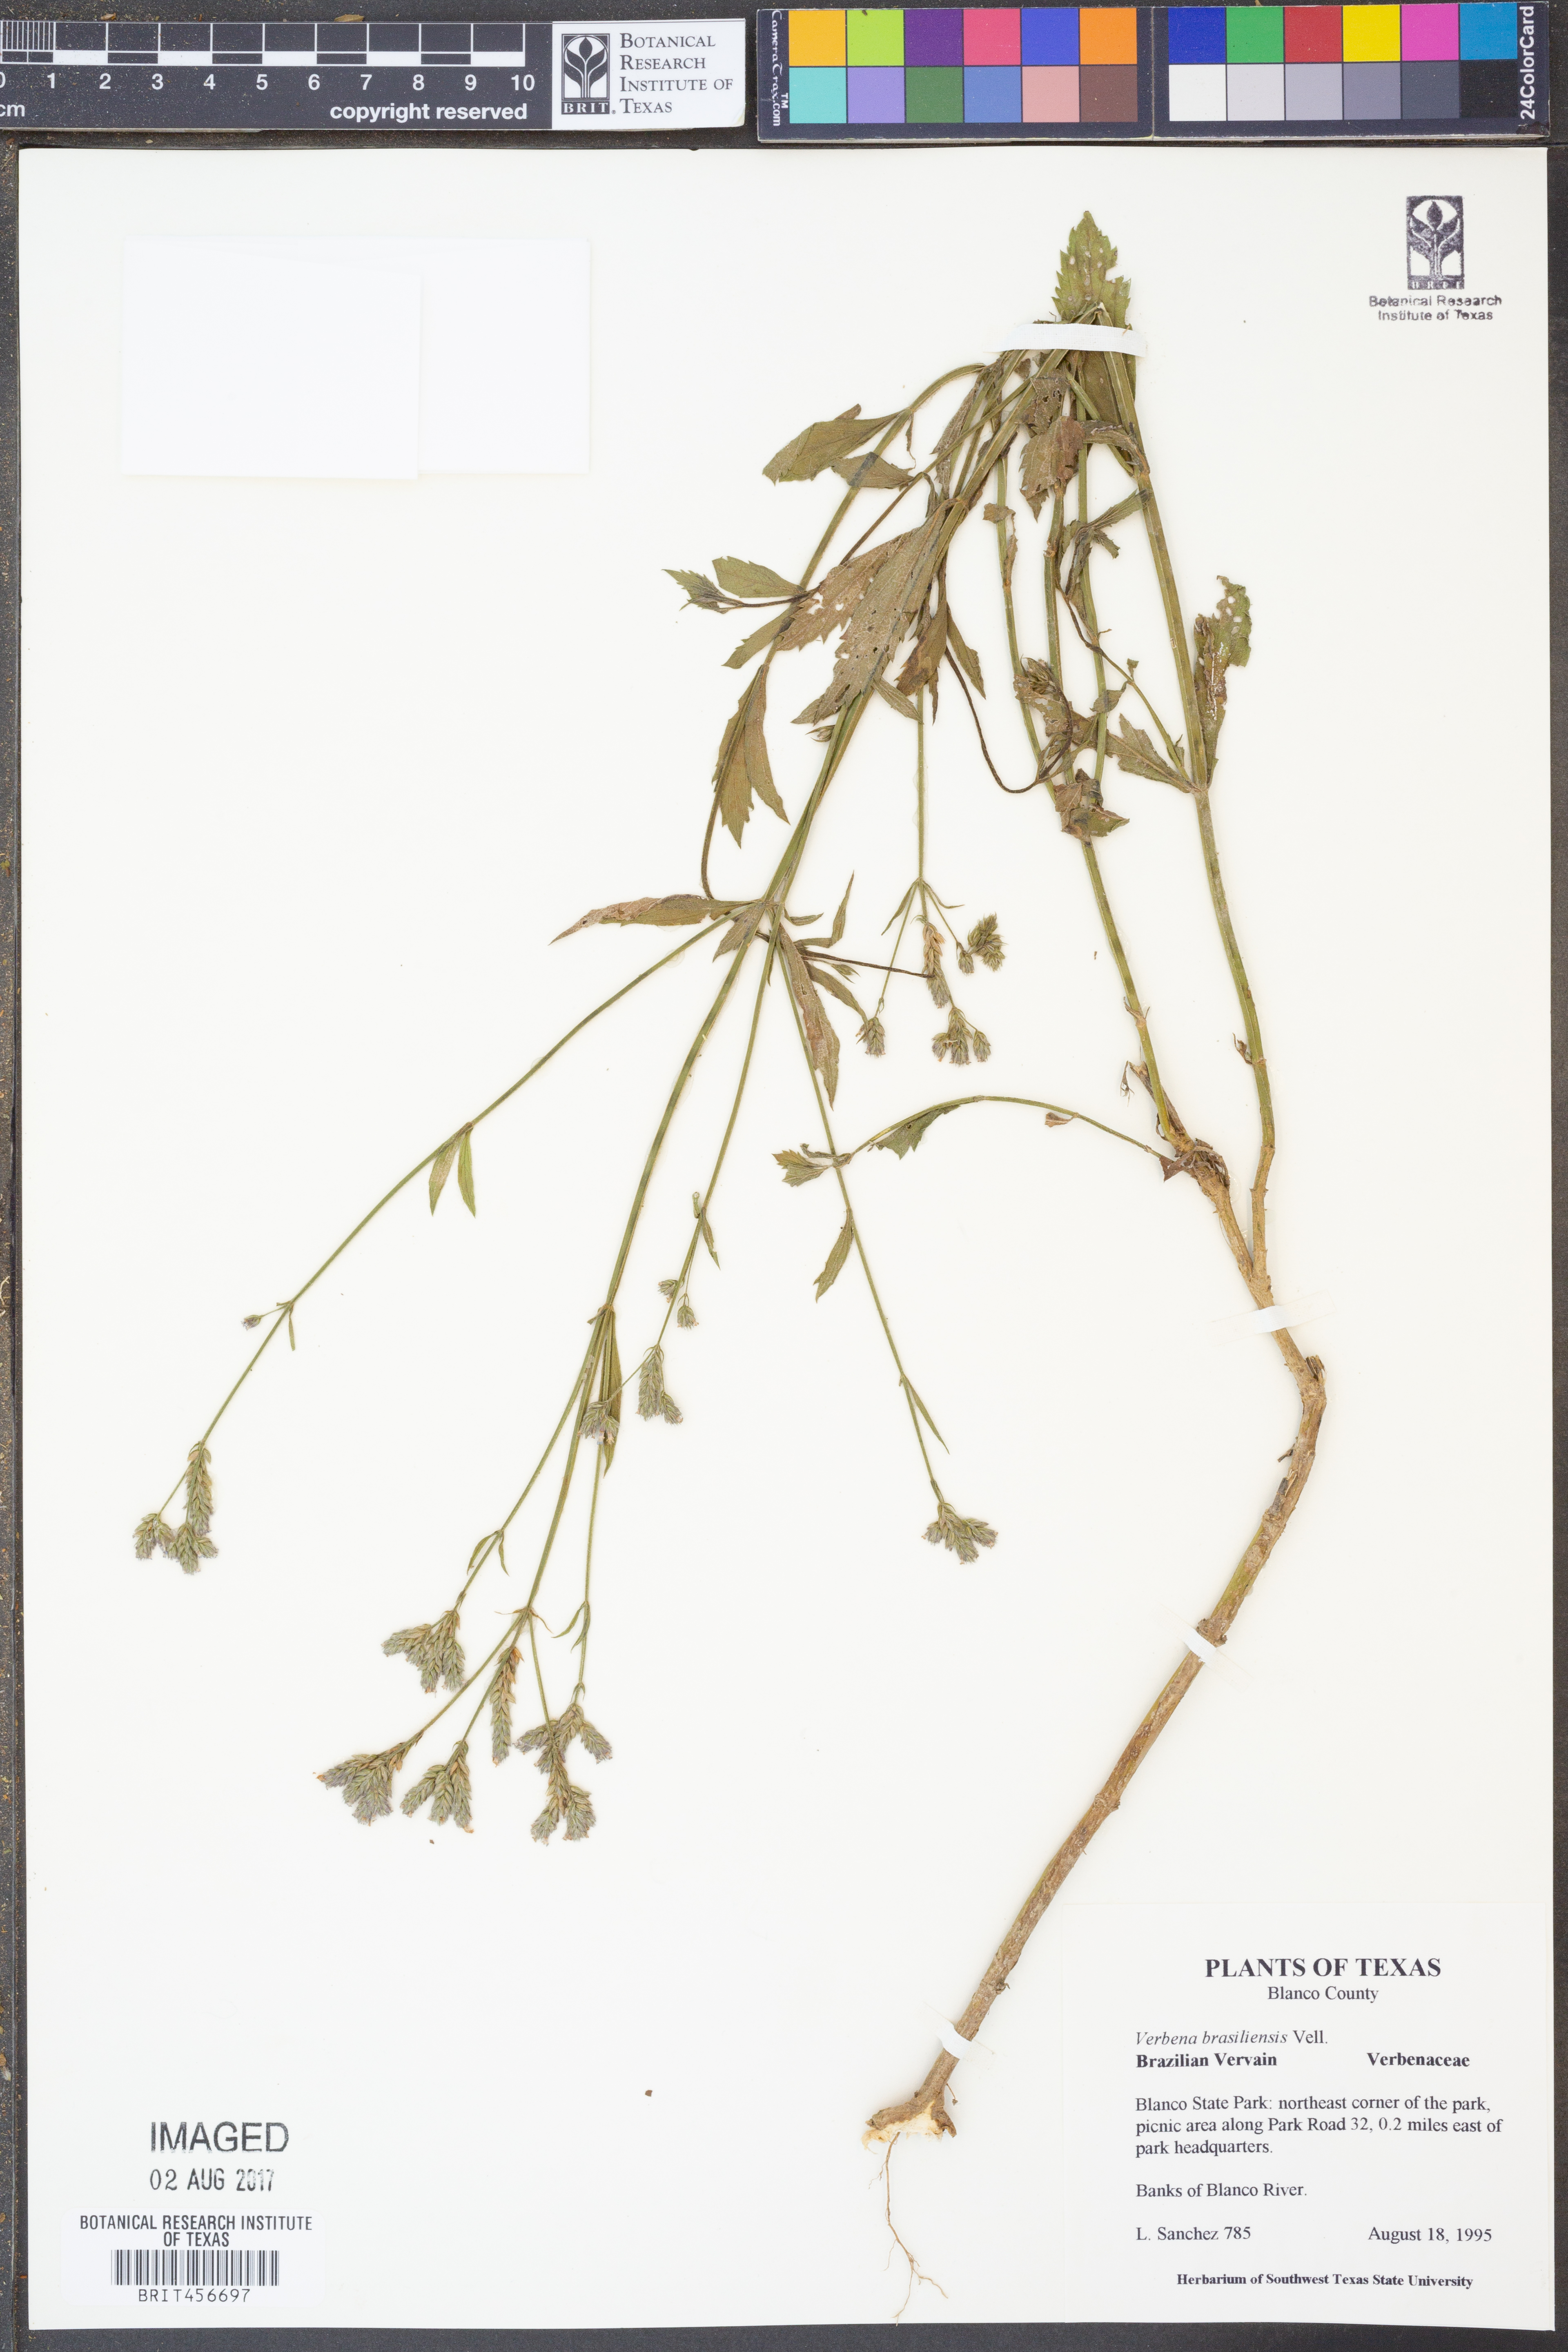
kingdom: Plantae
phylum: Tracheophyta
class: Magnoliopsida
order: Lamiales
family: Verbenaceae
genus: Verbena
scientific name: Verbena brasiliensis
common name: Brazilian vervain
